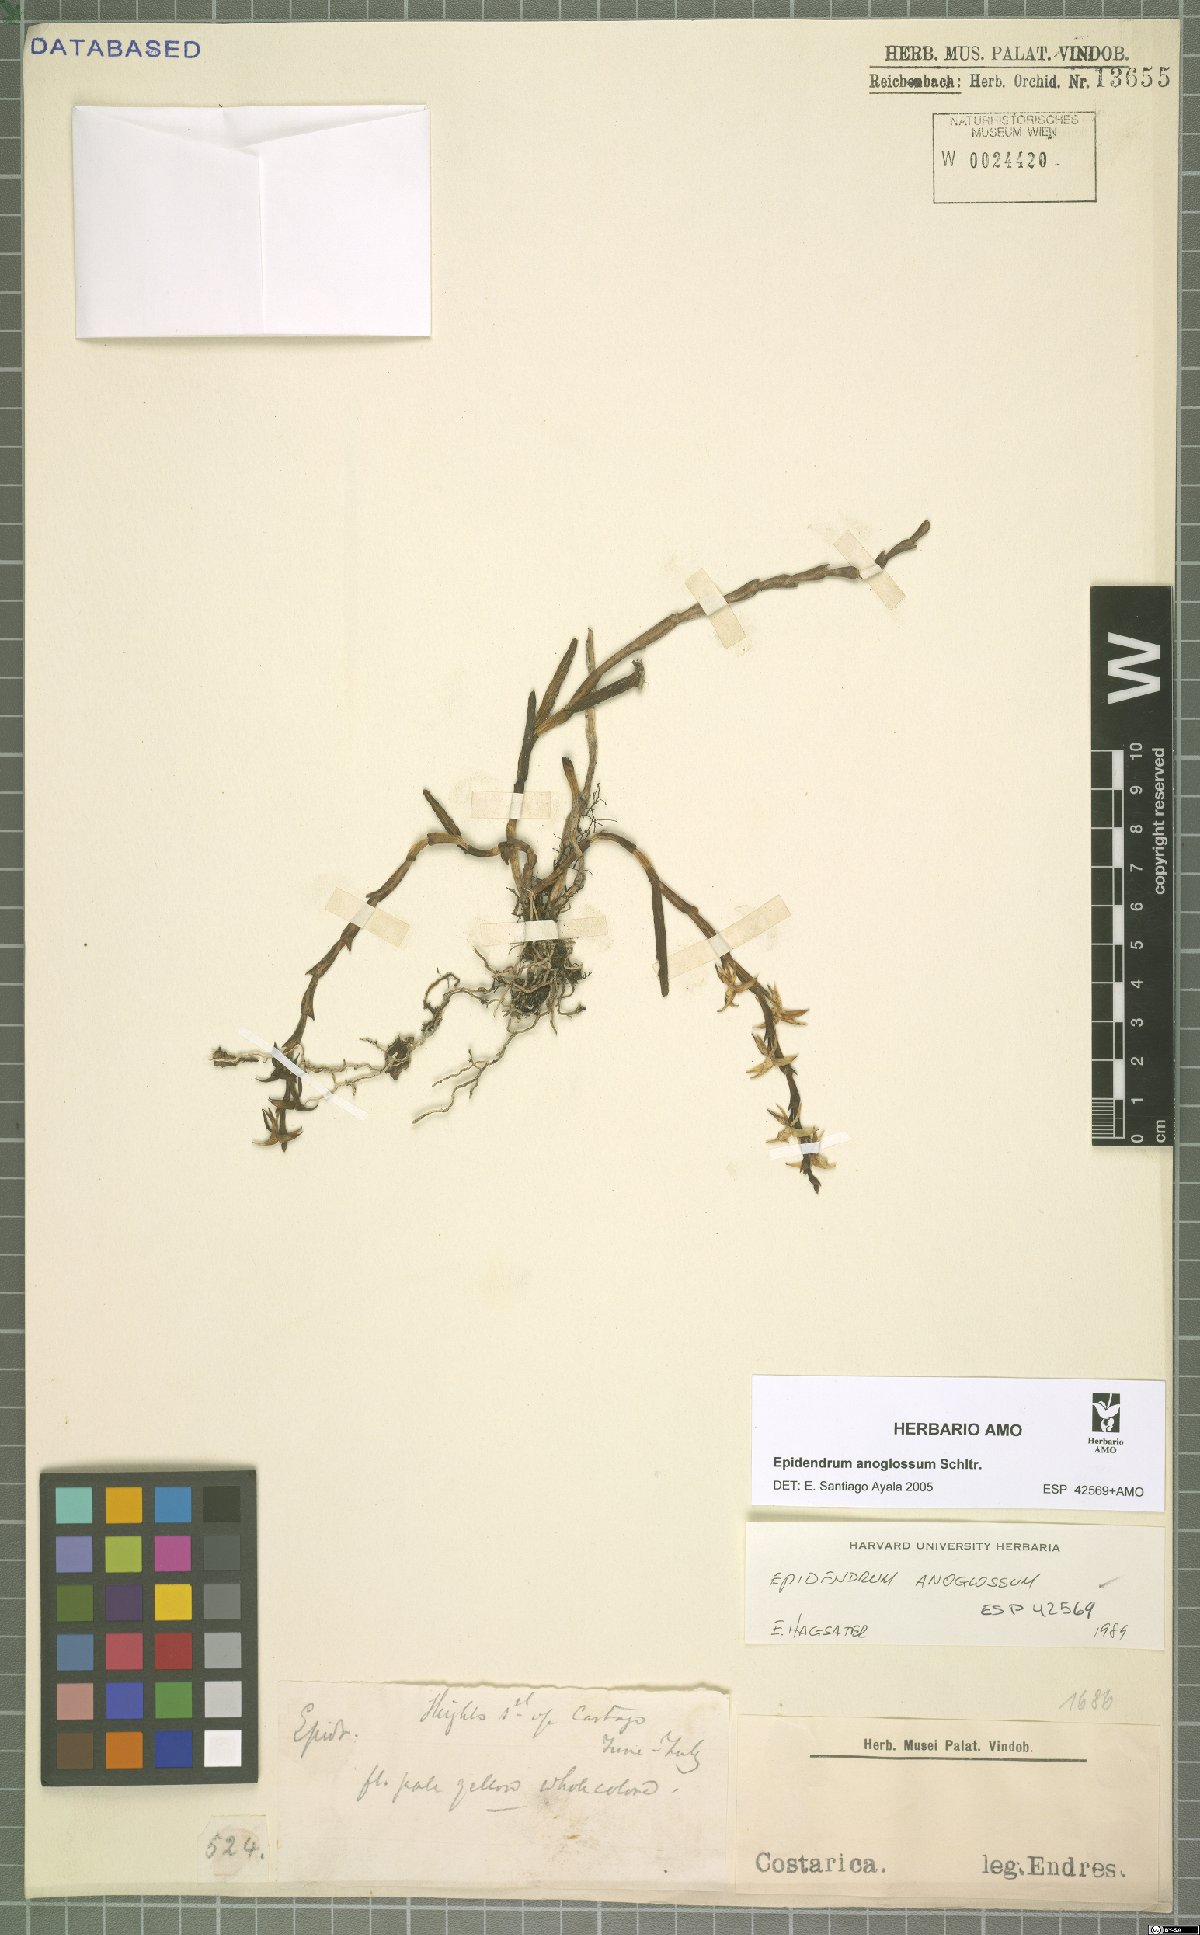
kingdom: Plantae
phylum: Tracheophyta
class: Liliopsida
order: Asparagales
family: Orchidaceae
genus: Epidendrum
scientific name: Epidendrum anoglossum
